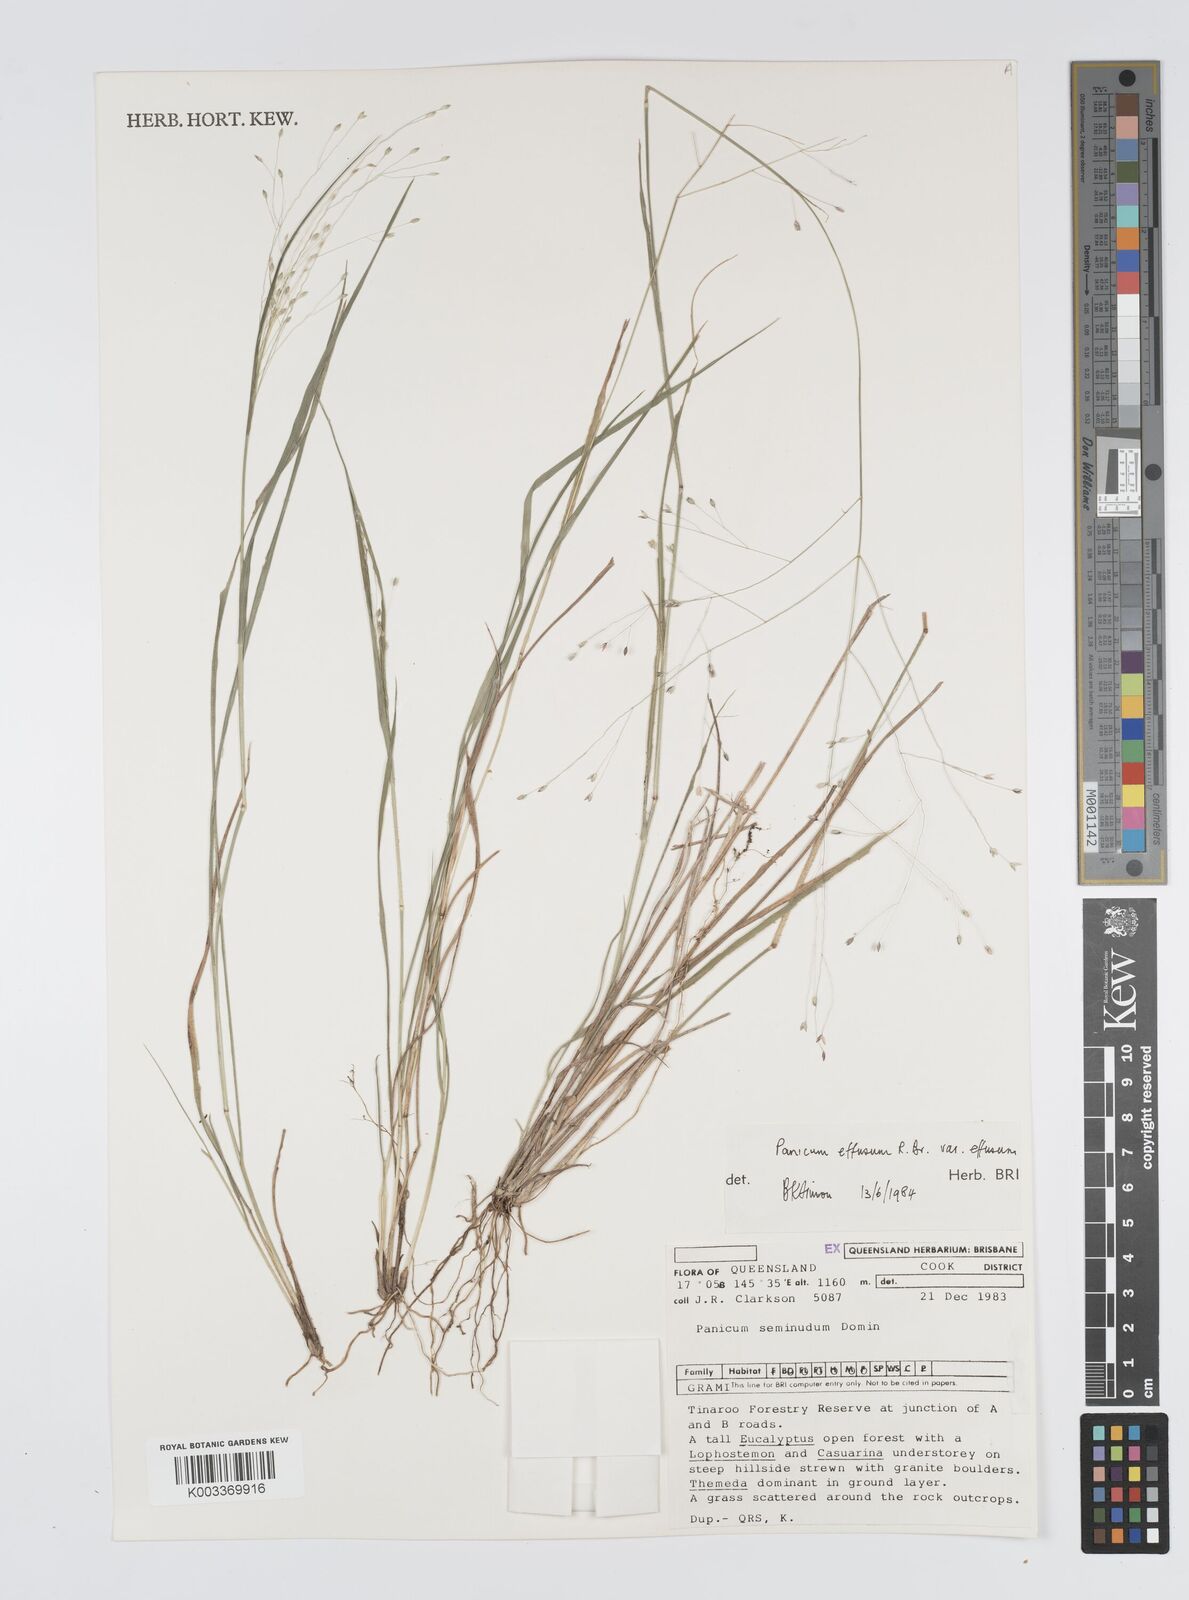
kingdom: Plantae
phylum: Tracheophyta
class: Liliopsida
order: Poales
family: Poaceae
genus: Panicum
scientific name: Panicum effusum
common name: Hairy panic grass
